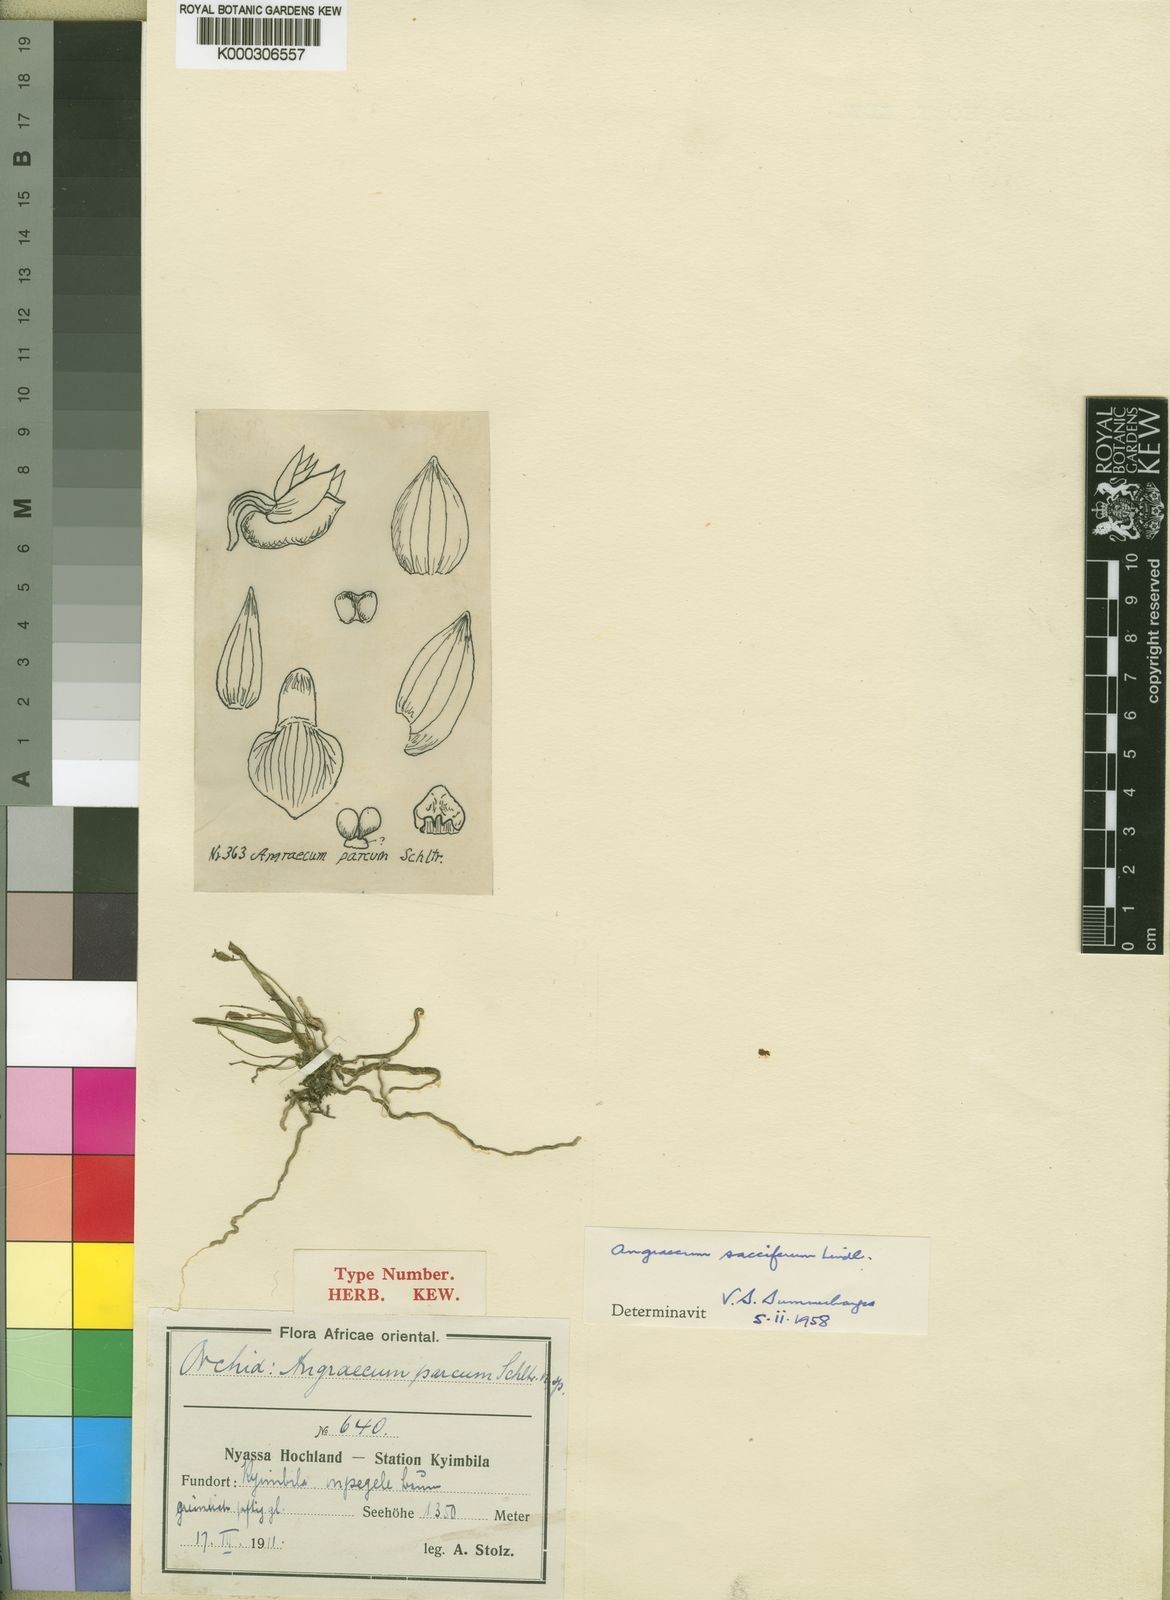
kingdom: Plantae
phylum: Tracheophyta
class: Liliopsida
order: Asparagales
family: Orchidaceae
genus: Angraecum
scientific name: Angraecum sacciferum
